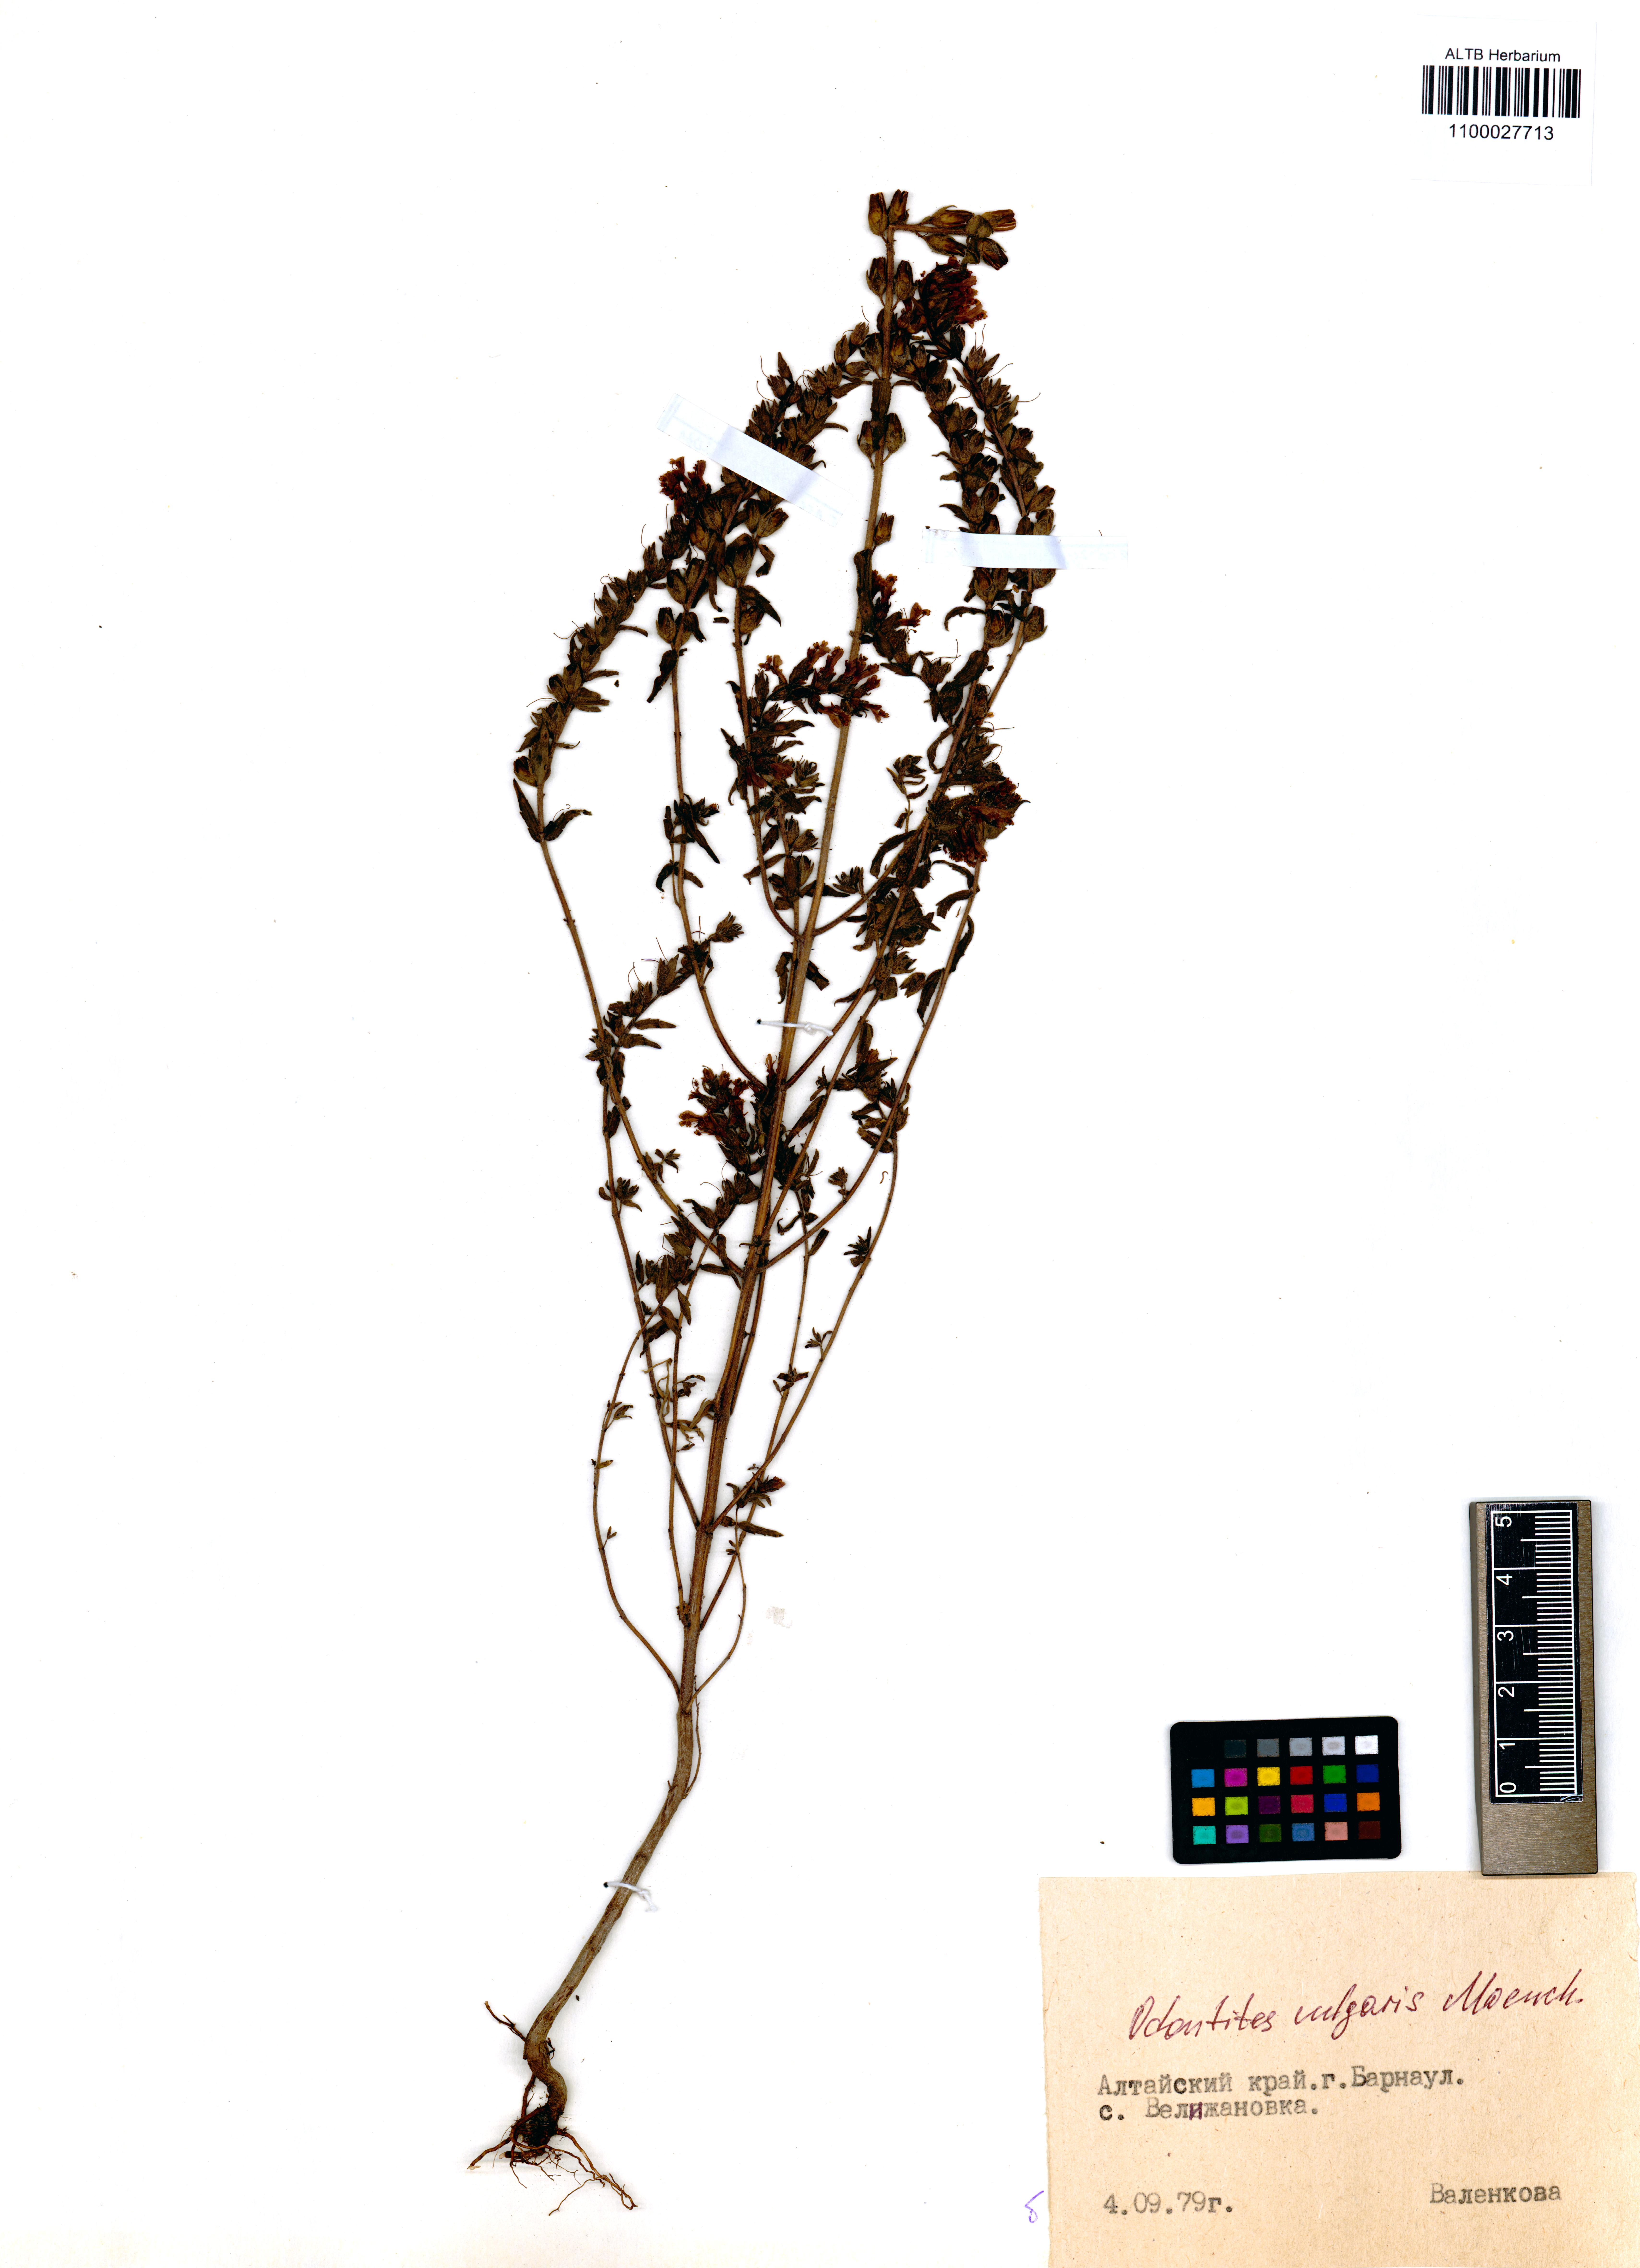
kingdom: Plantae
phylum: Tracheophyta
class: Magnoliopsida
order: Lamiales
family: Orobanchaceae
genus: Odontites
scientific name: Odontites vulgaris
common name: Broomrape
